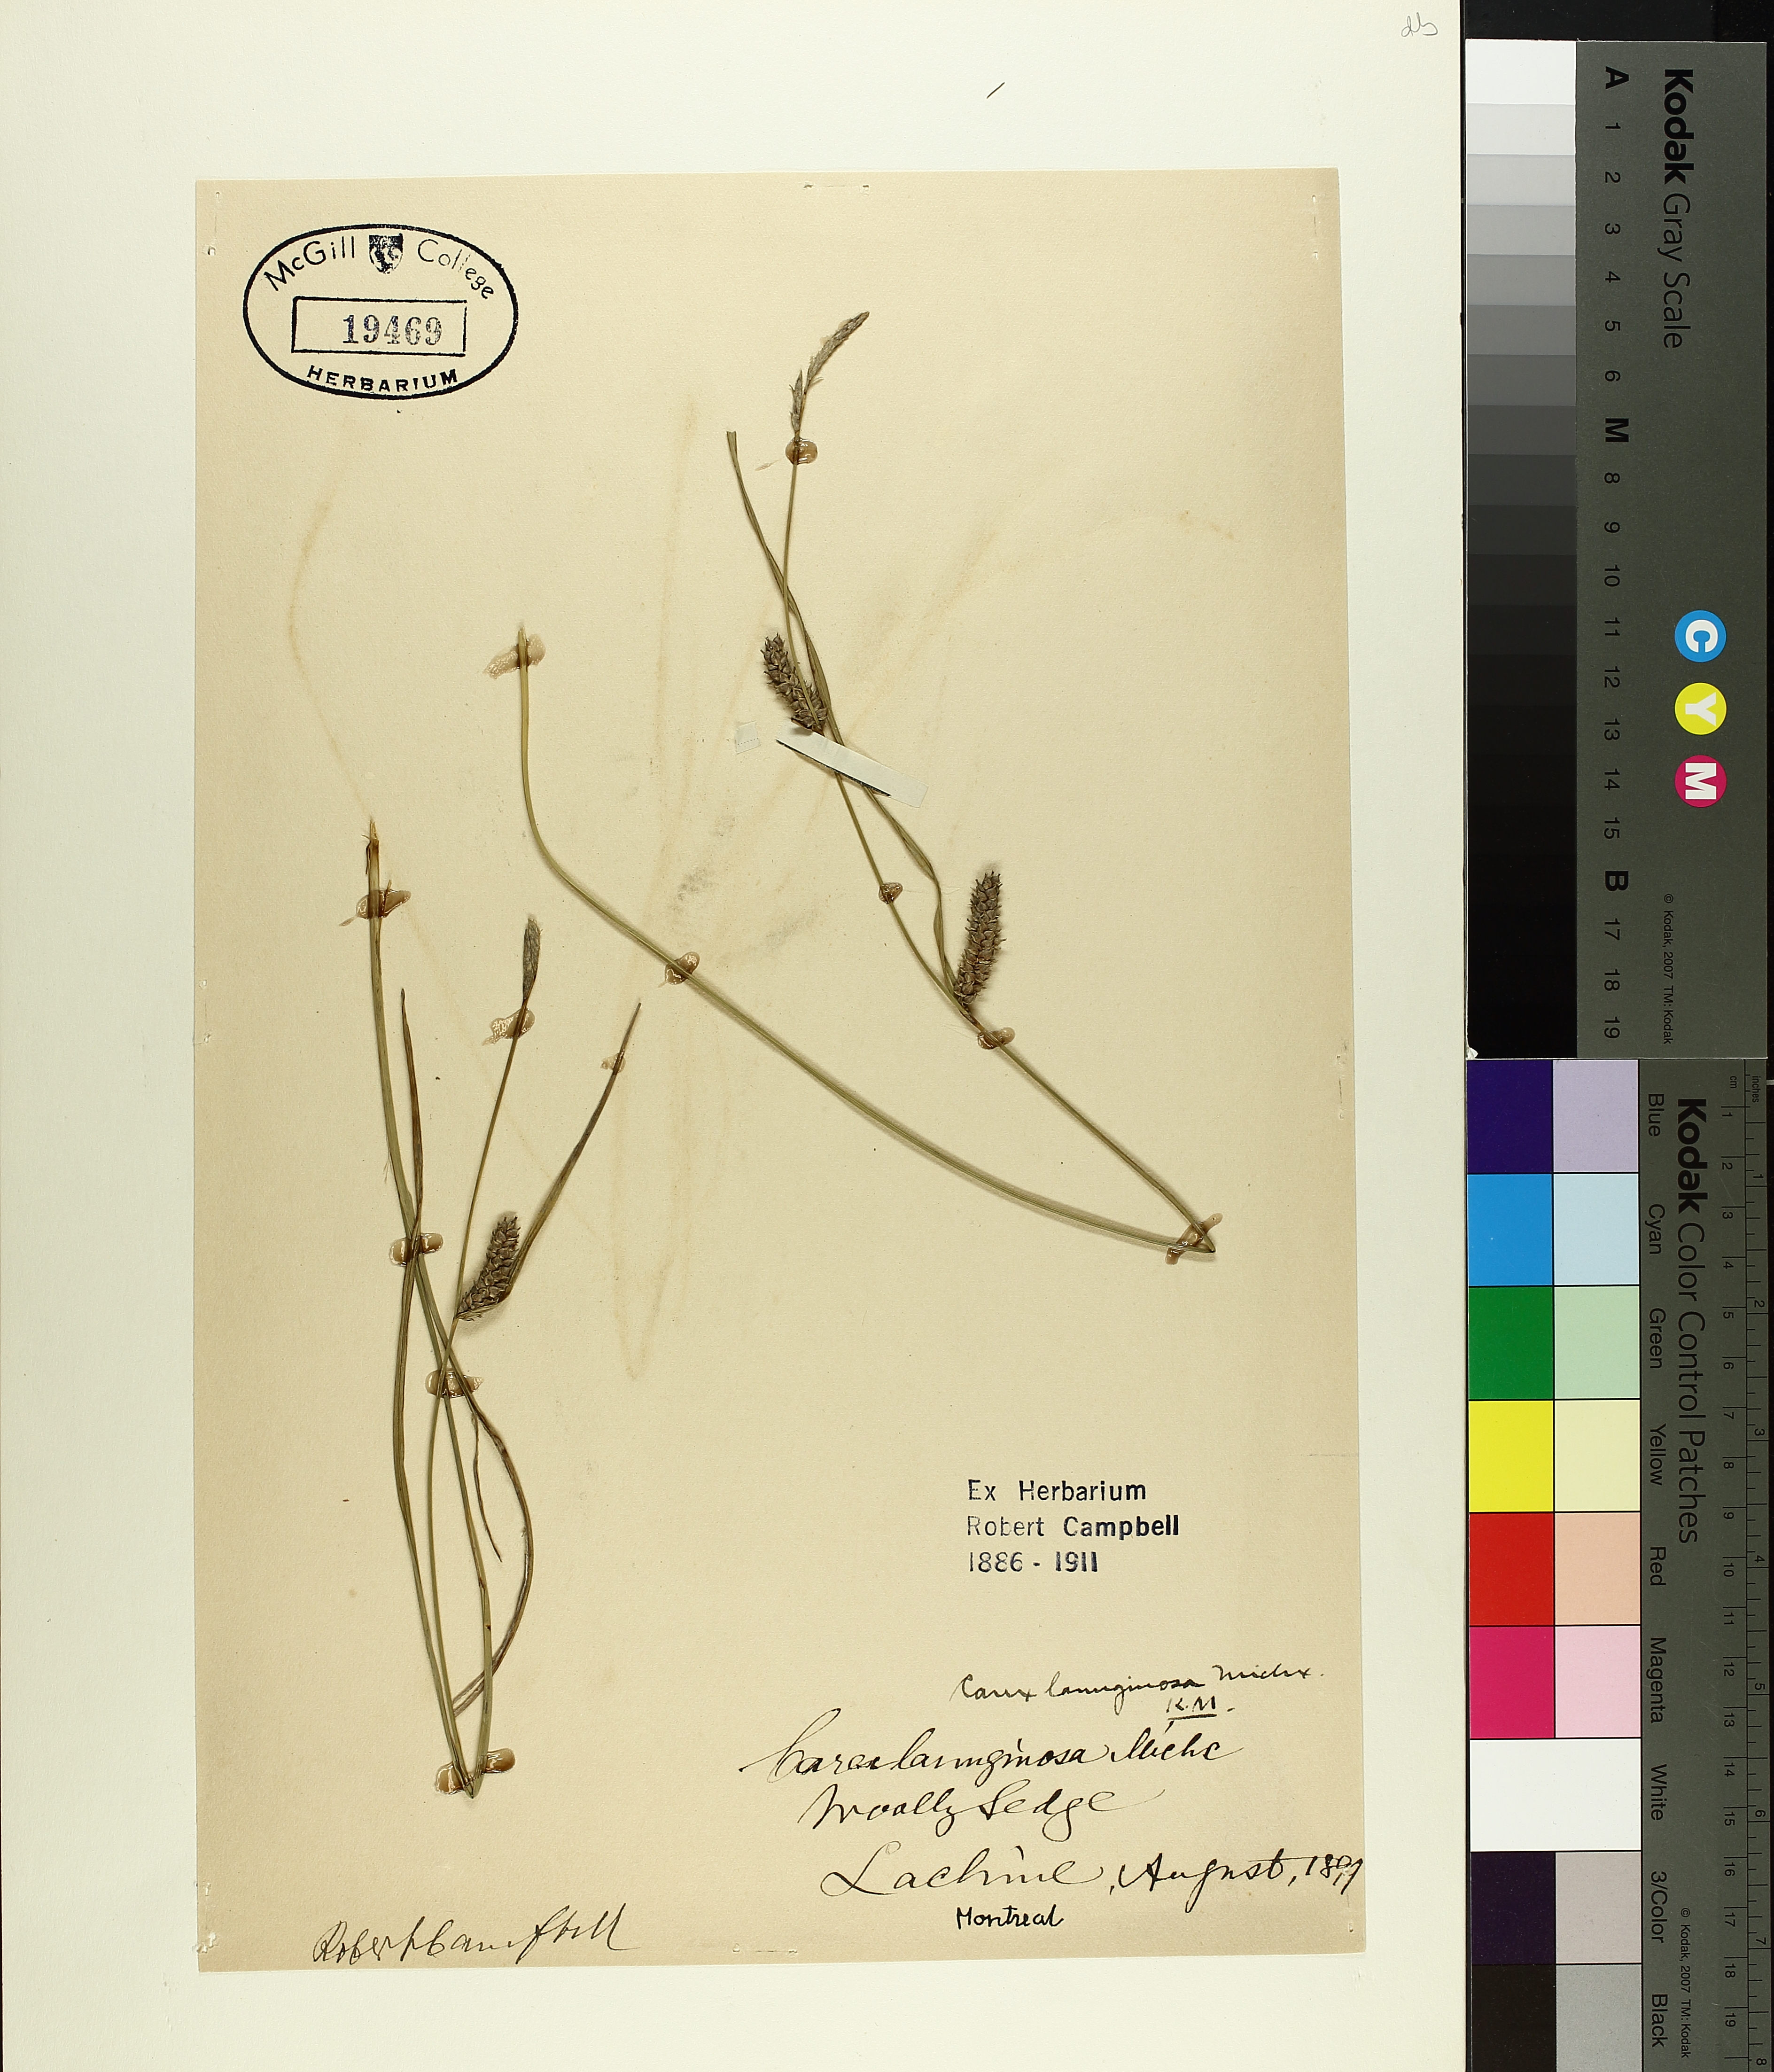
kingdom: Plantae
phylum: Tracheophyta
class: Liliopsida
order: Poales
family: Cyperaceae
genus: Carex
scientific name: Carex pellita
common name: Woolly sedge
